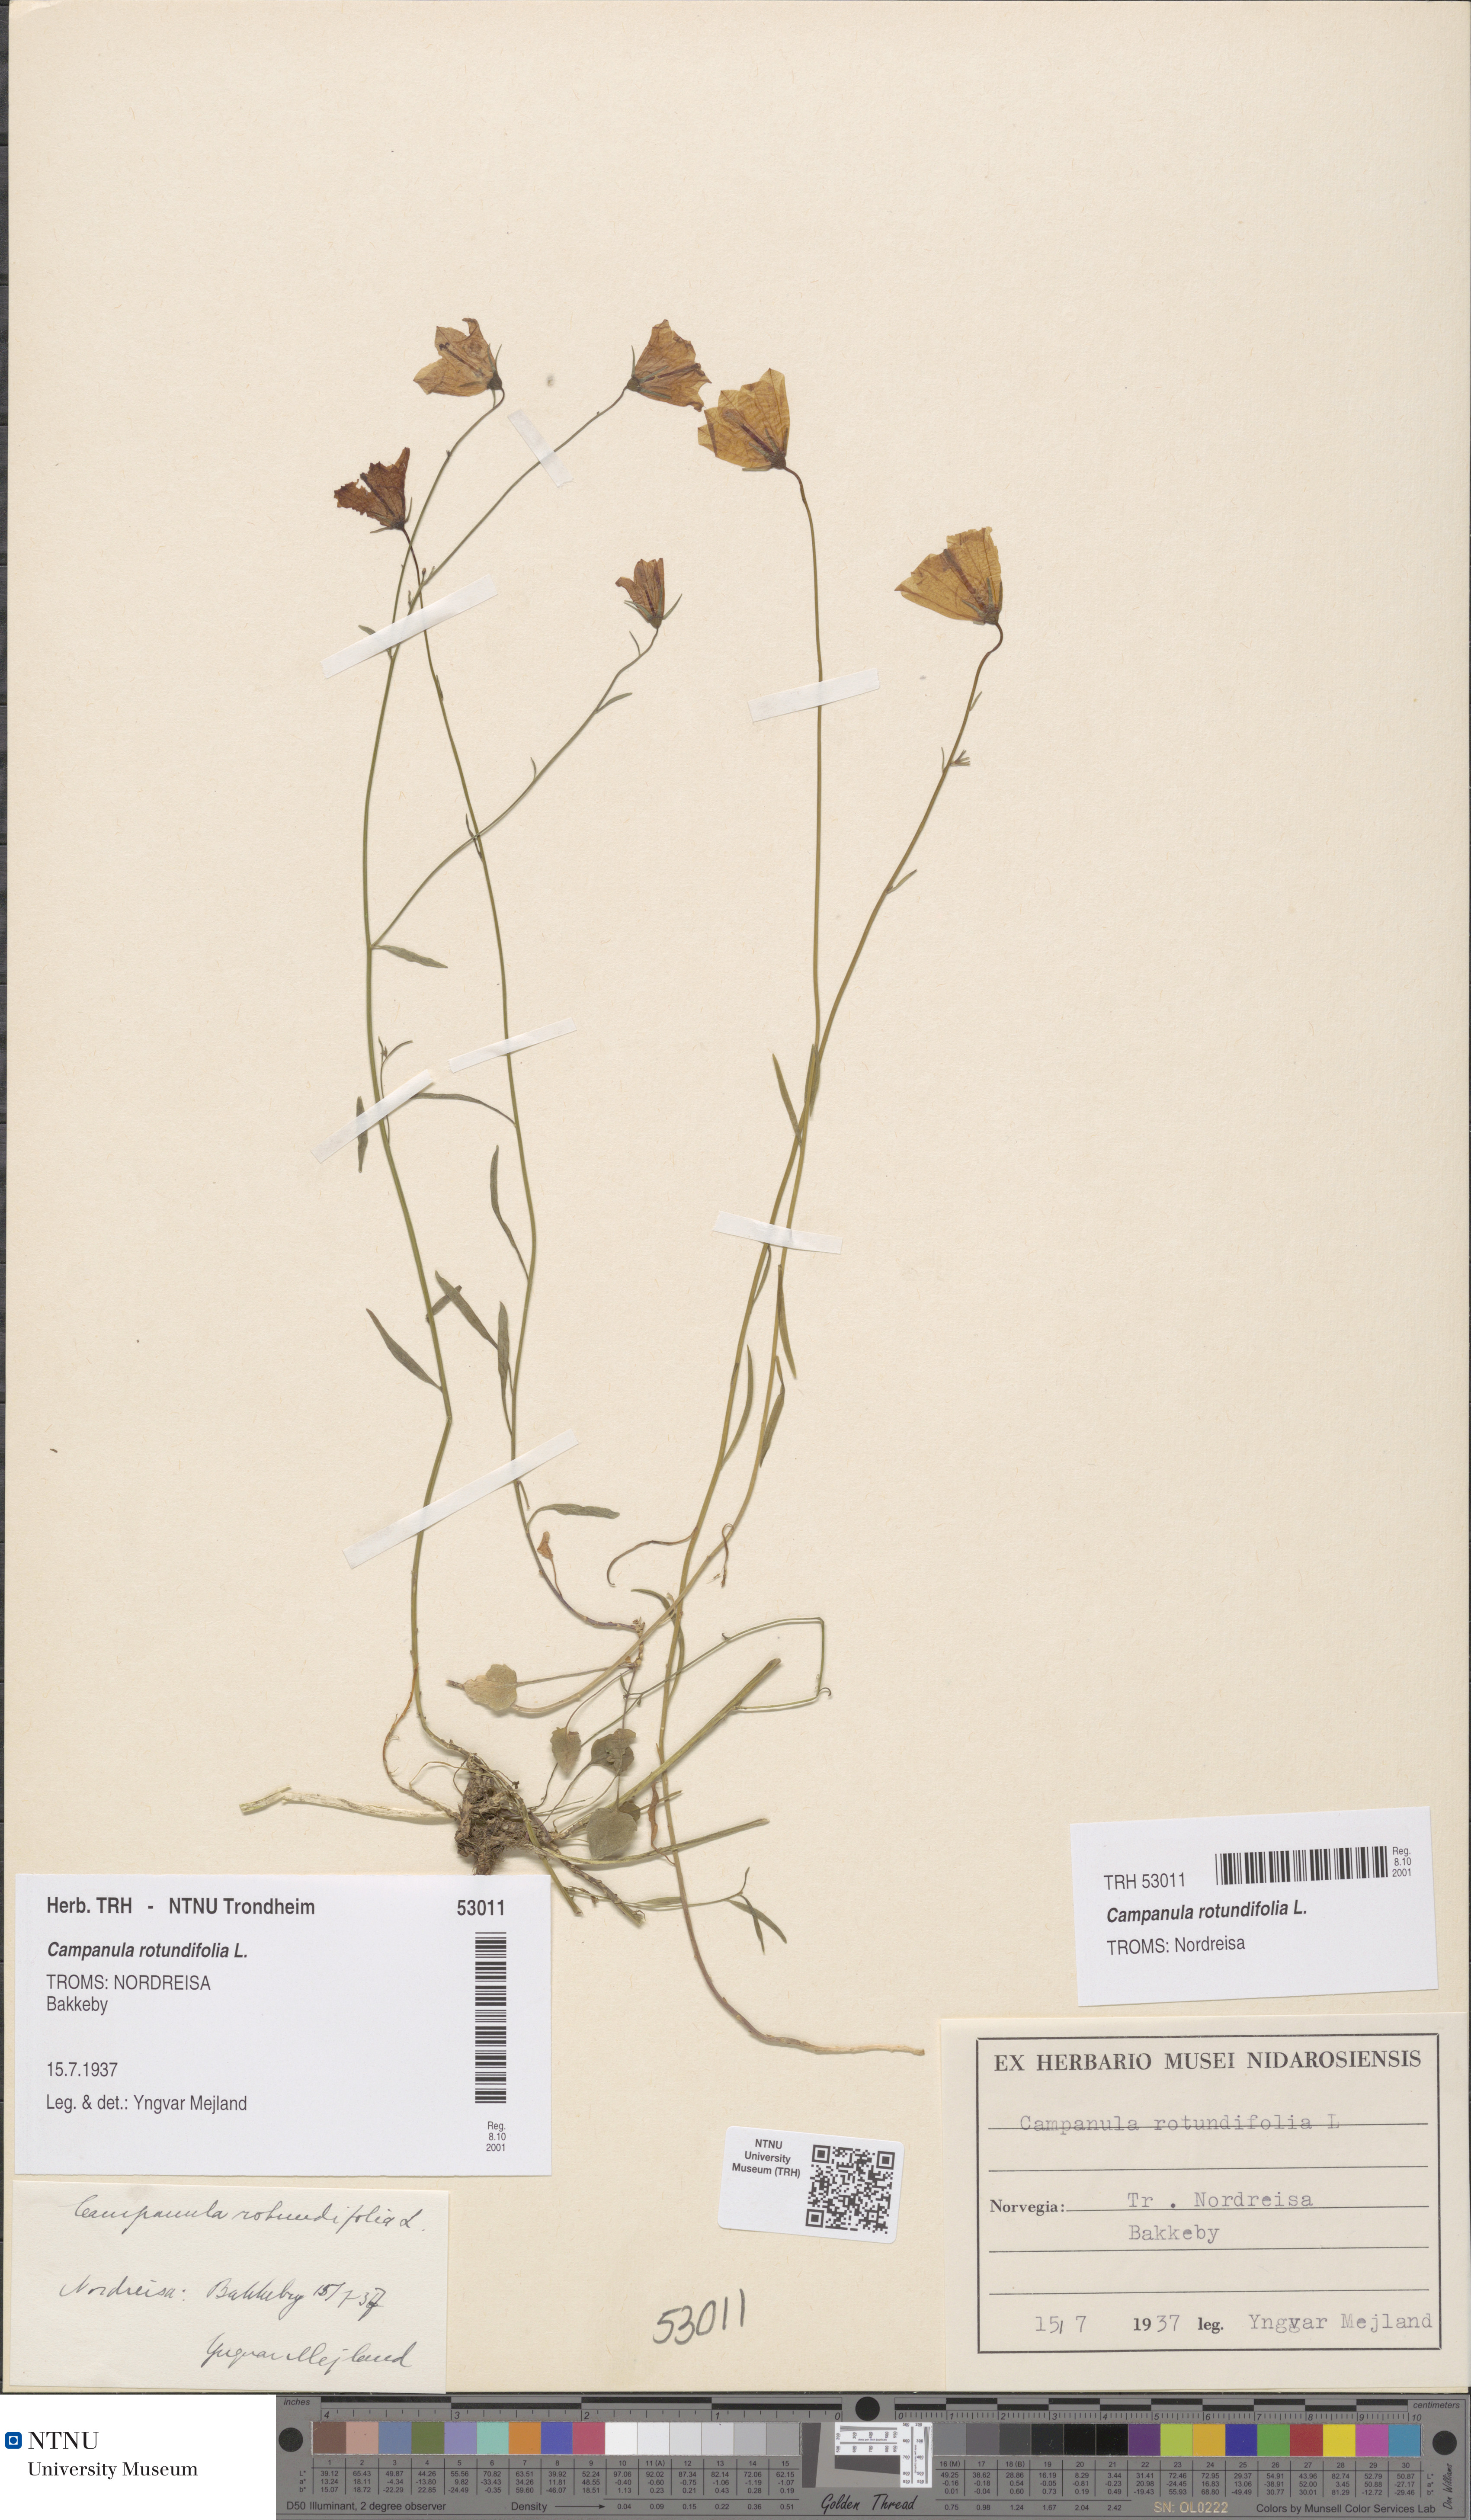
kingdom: Plantae
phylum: Tracheophyta
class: Magnoliopsida
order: Asterales
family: Campanulaceae
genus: Campanula
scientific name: Campanula rotundifolia
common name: Harebell
